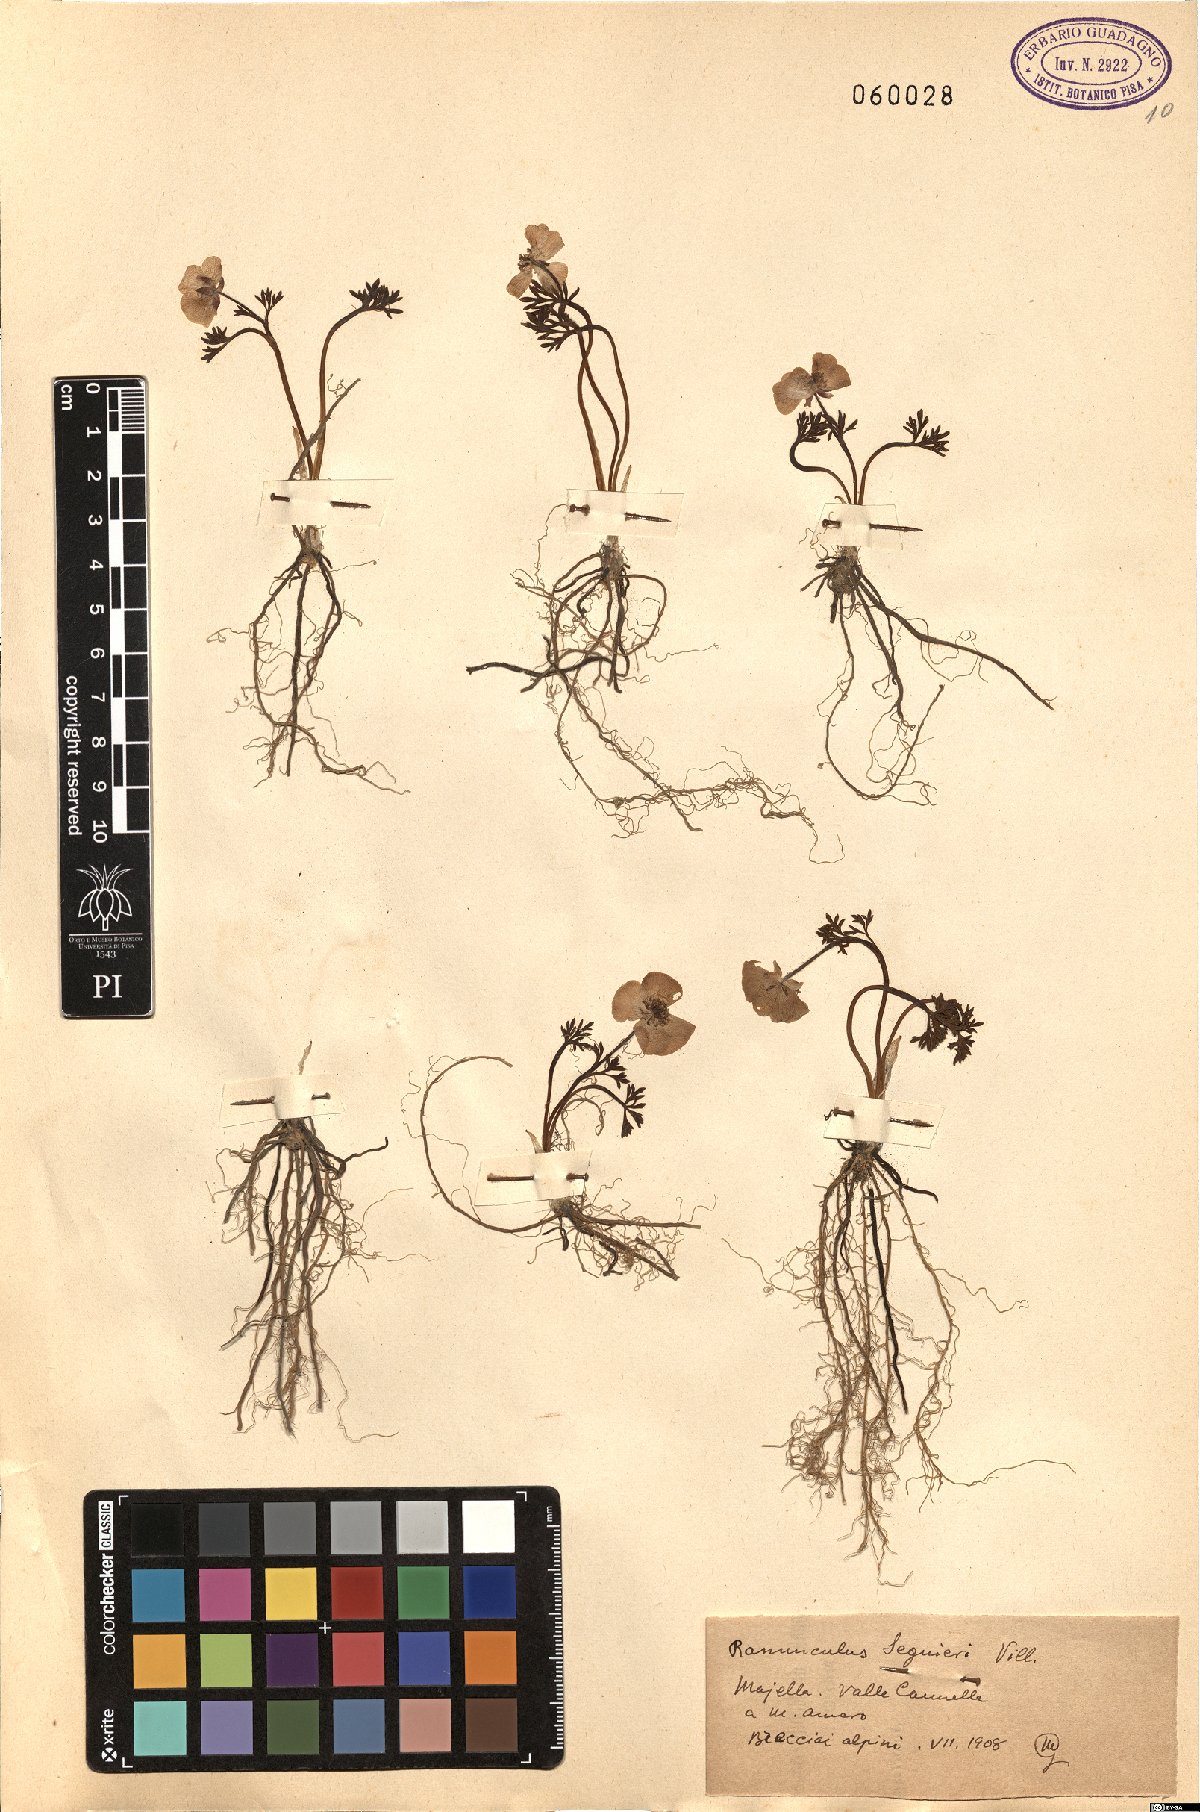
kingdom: Plantae
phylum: Tracheophyta
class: Magnoliopsida
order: Ranunculales
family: Ranunculaceae
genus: Ranunculus
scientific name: Ranunculus seguieri
